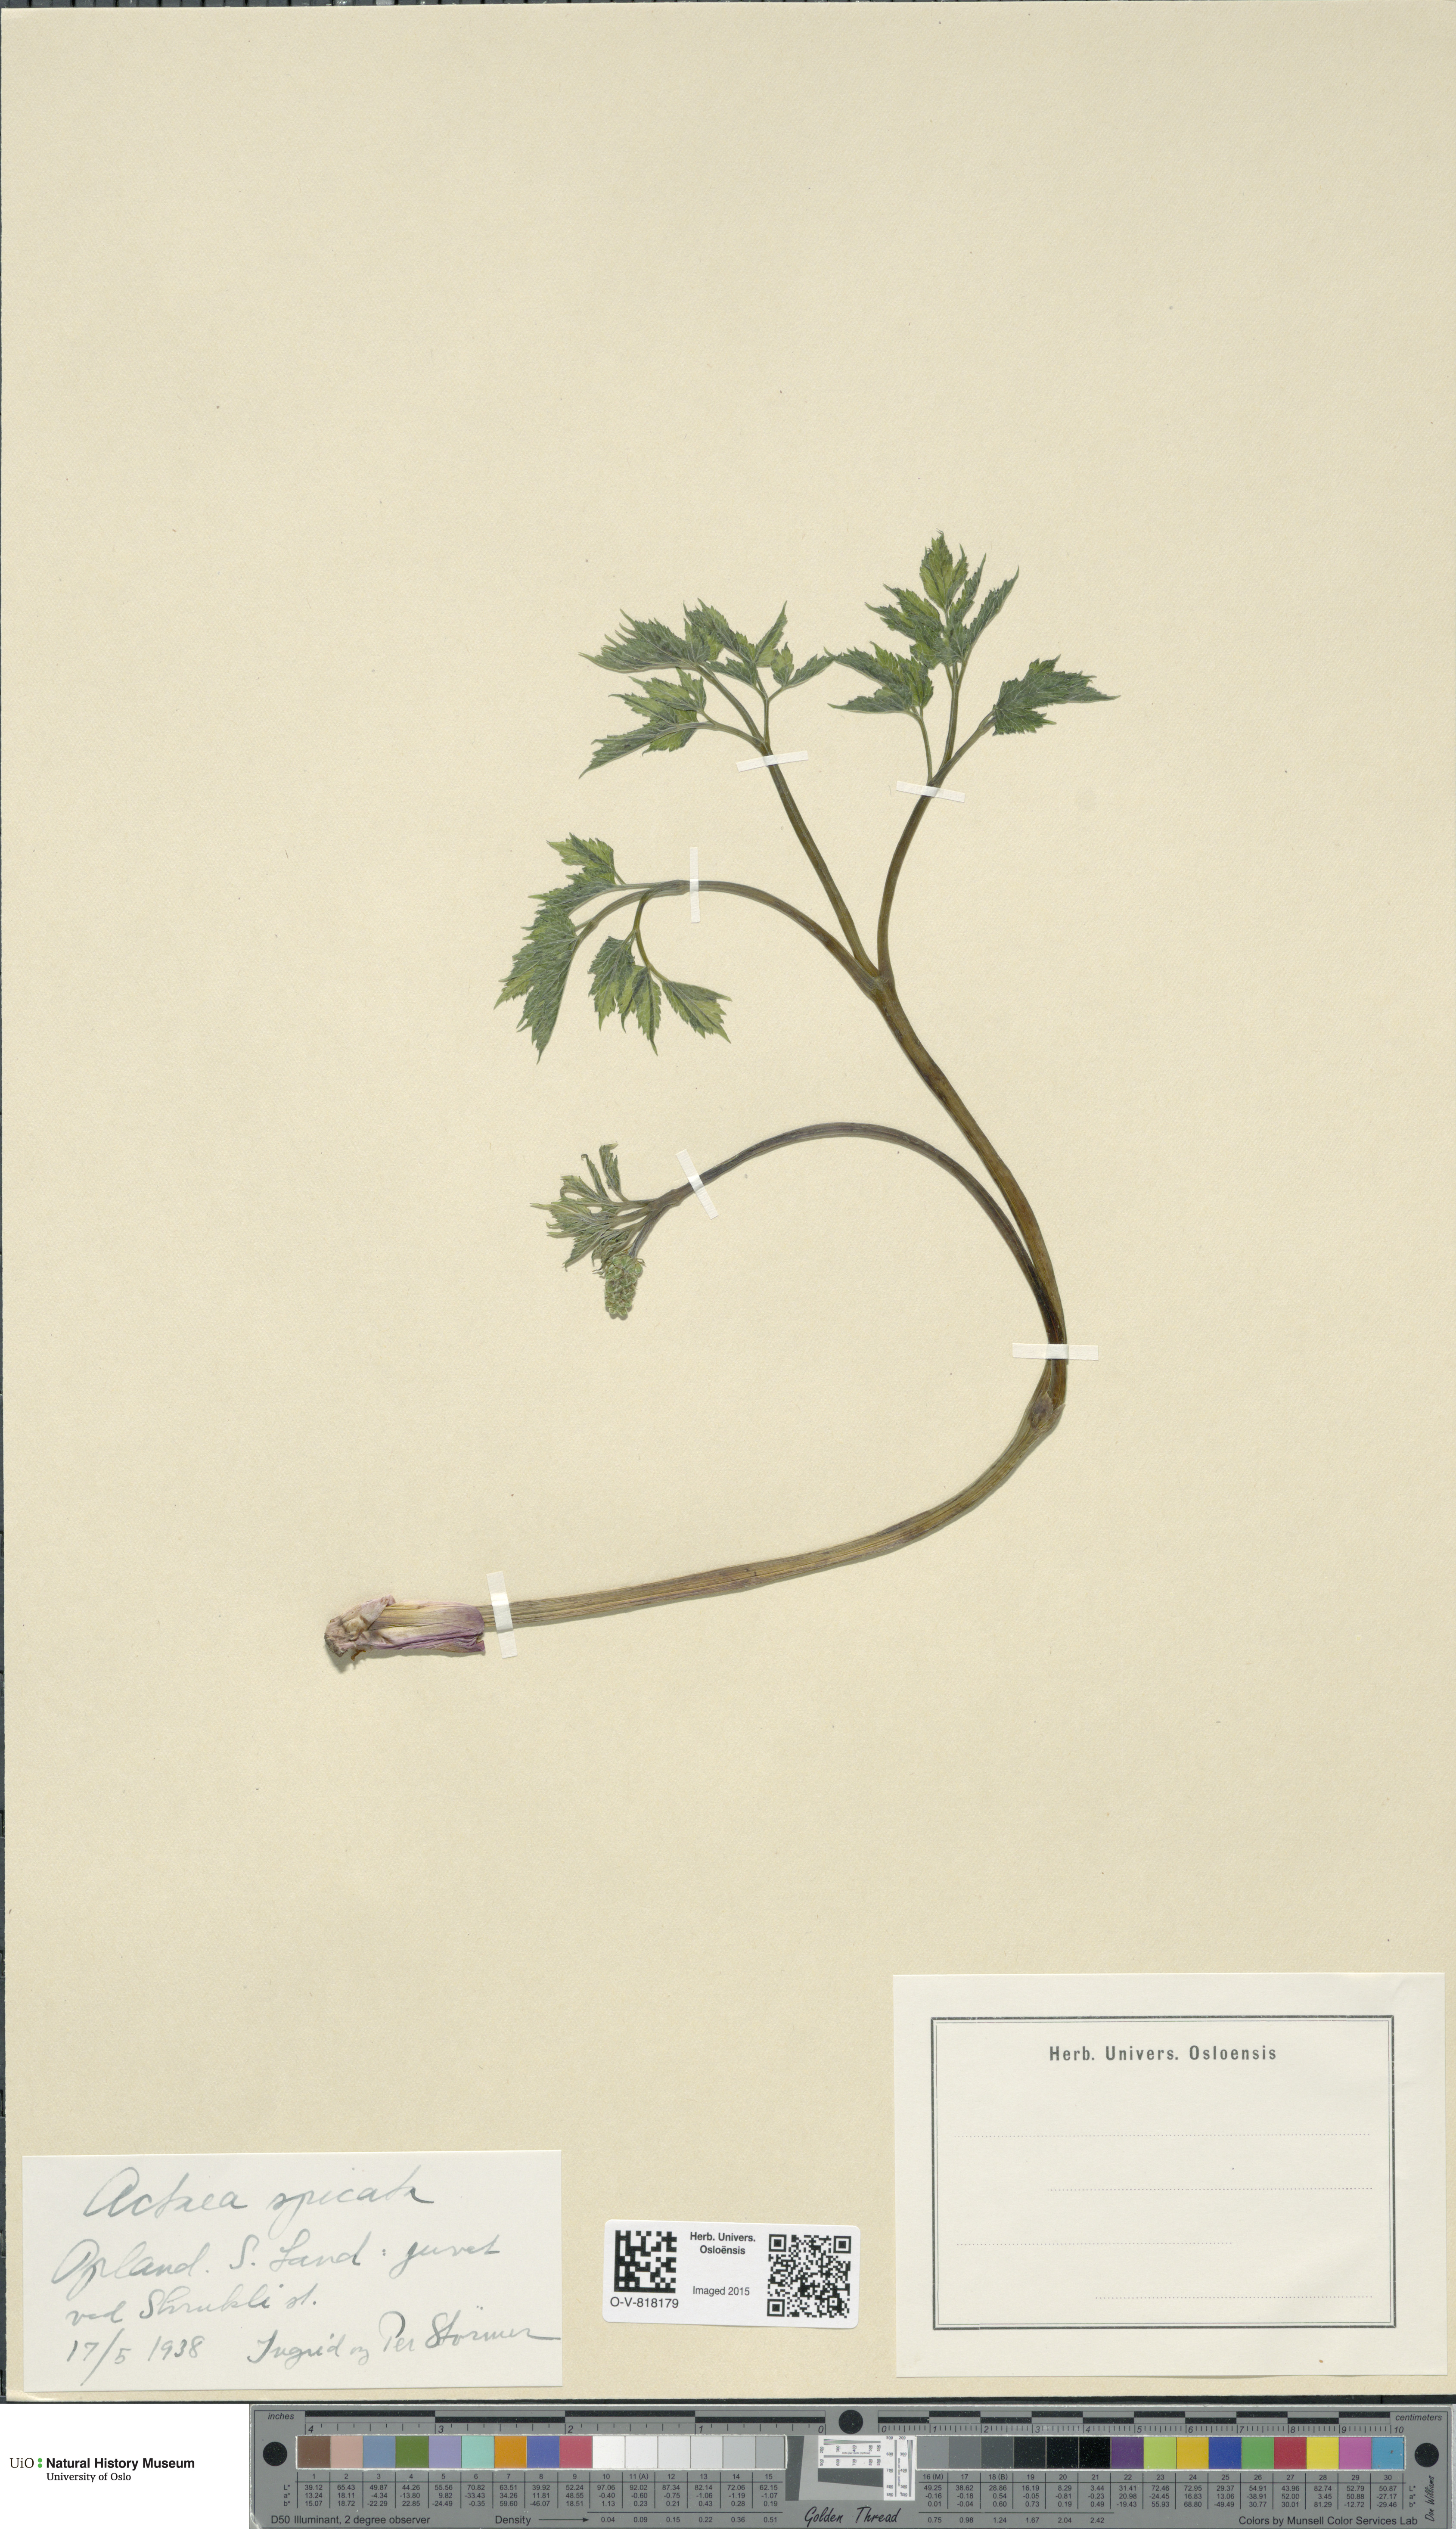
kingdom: Plantae
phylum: Tracheophyta
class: Magnoliopsida
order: Ranunculales
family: Ranunculaceae
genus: Actaea
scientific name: Actaea spicata
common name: Baneberry
